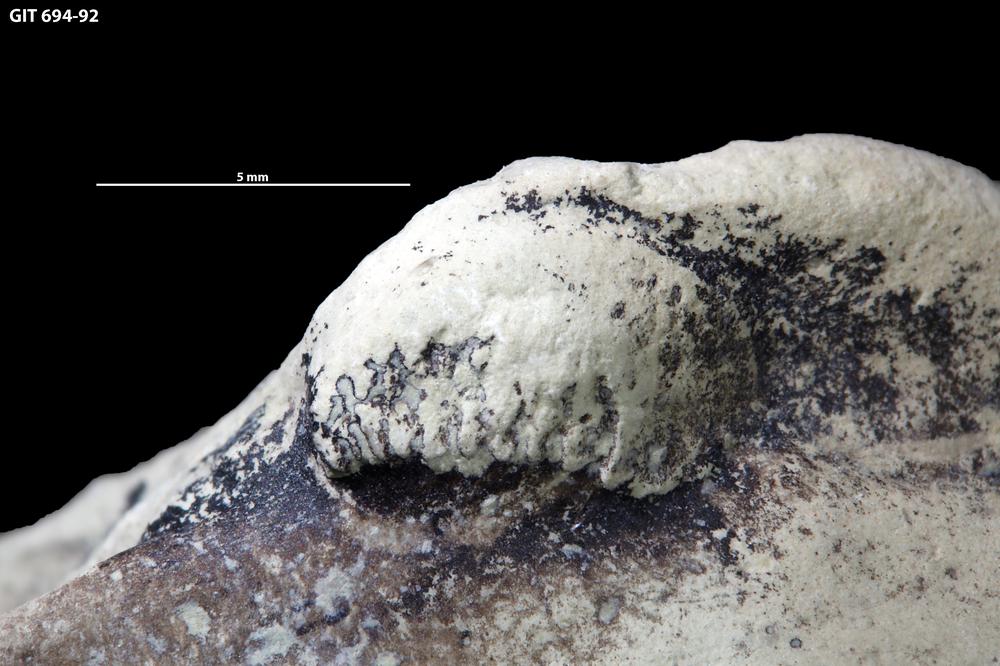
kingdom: Animalia
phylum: Mollusca
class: Bivalvia
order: Modiomorphida
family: Modiomorphidae
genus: Aristerella
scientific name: Aristerella
